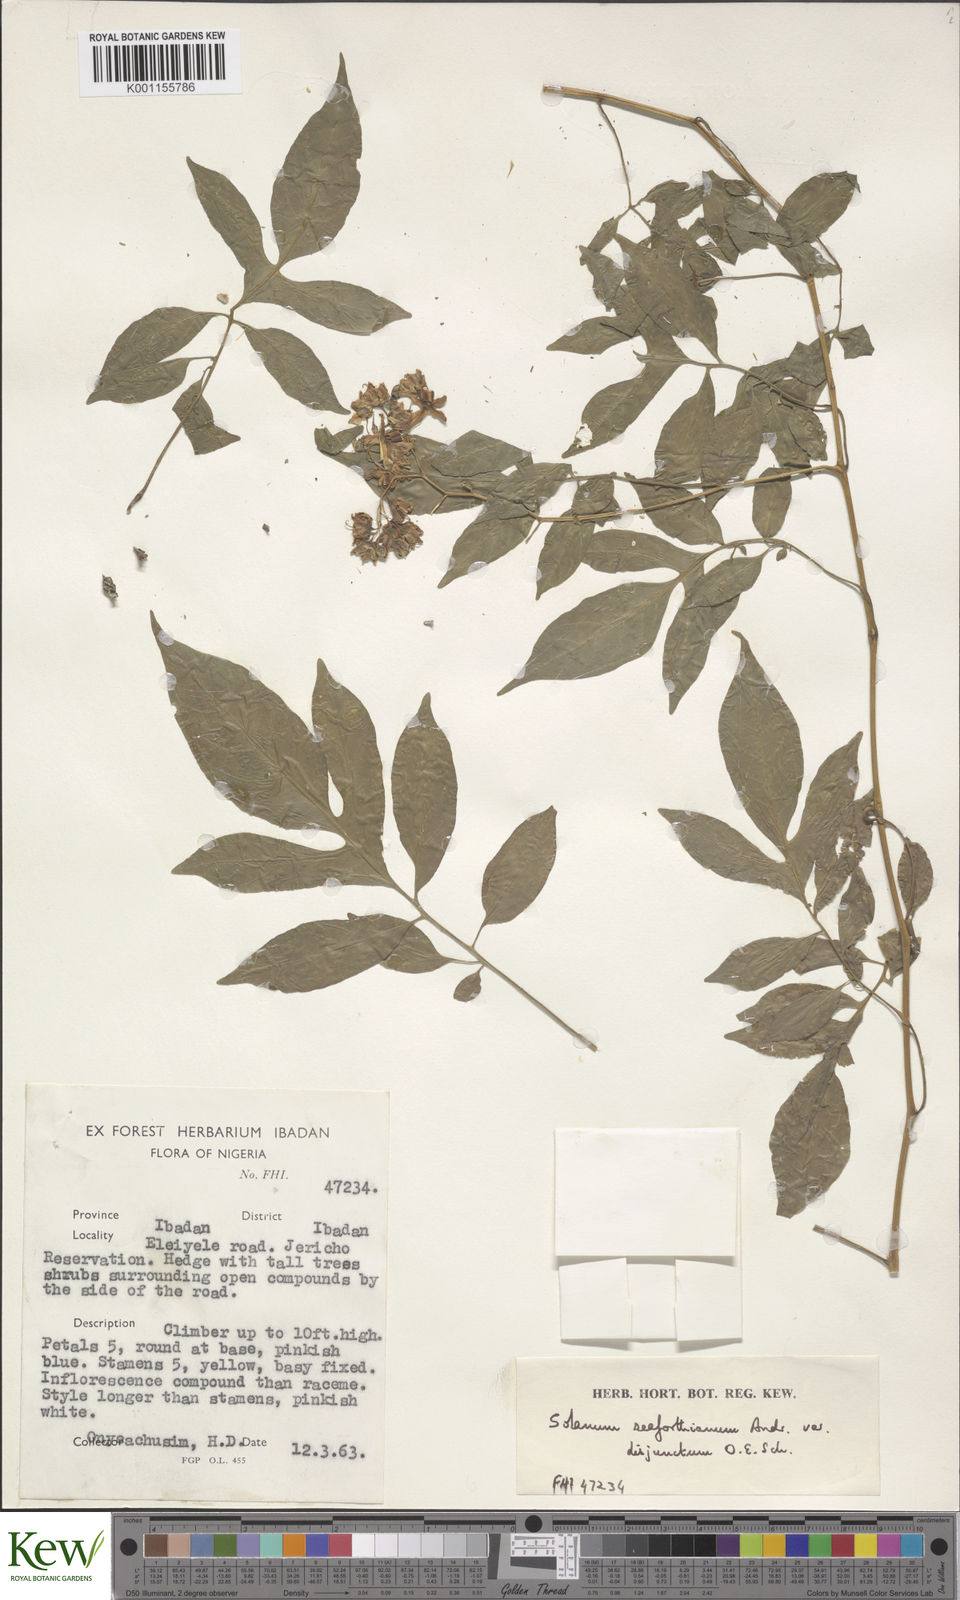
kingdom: Plantae
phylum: Tracheophyta
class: Magnoliopsida
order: Solanales
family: Solanaceae
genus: Solanum
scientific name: Solanum seaforthianum
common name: Brazilian nightshade
